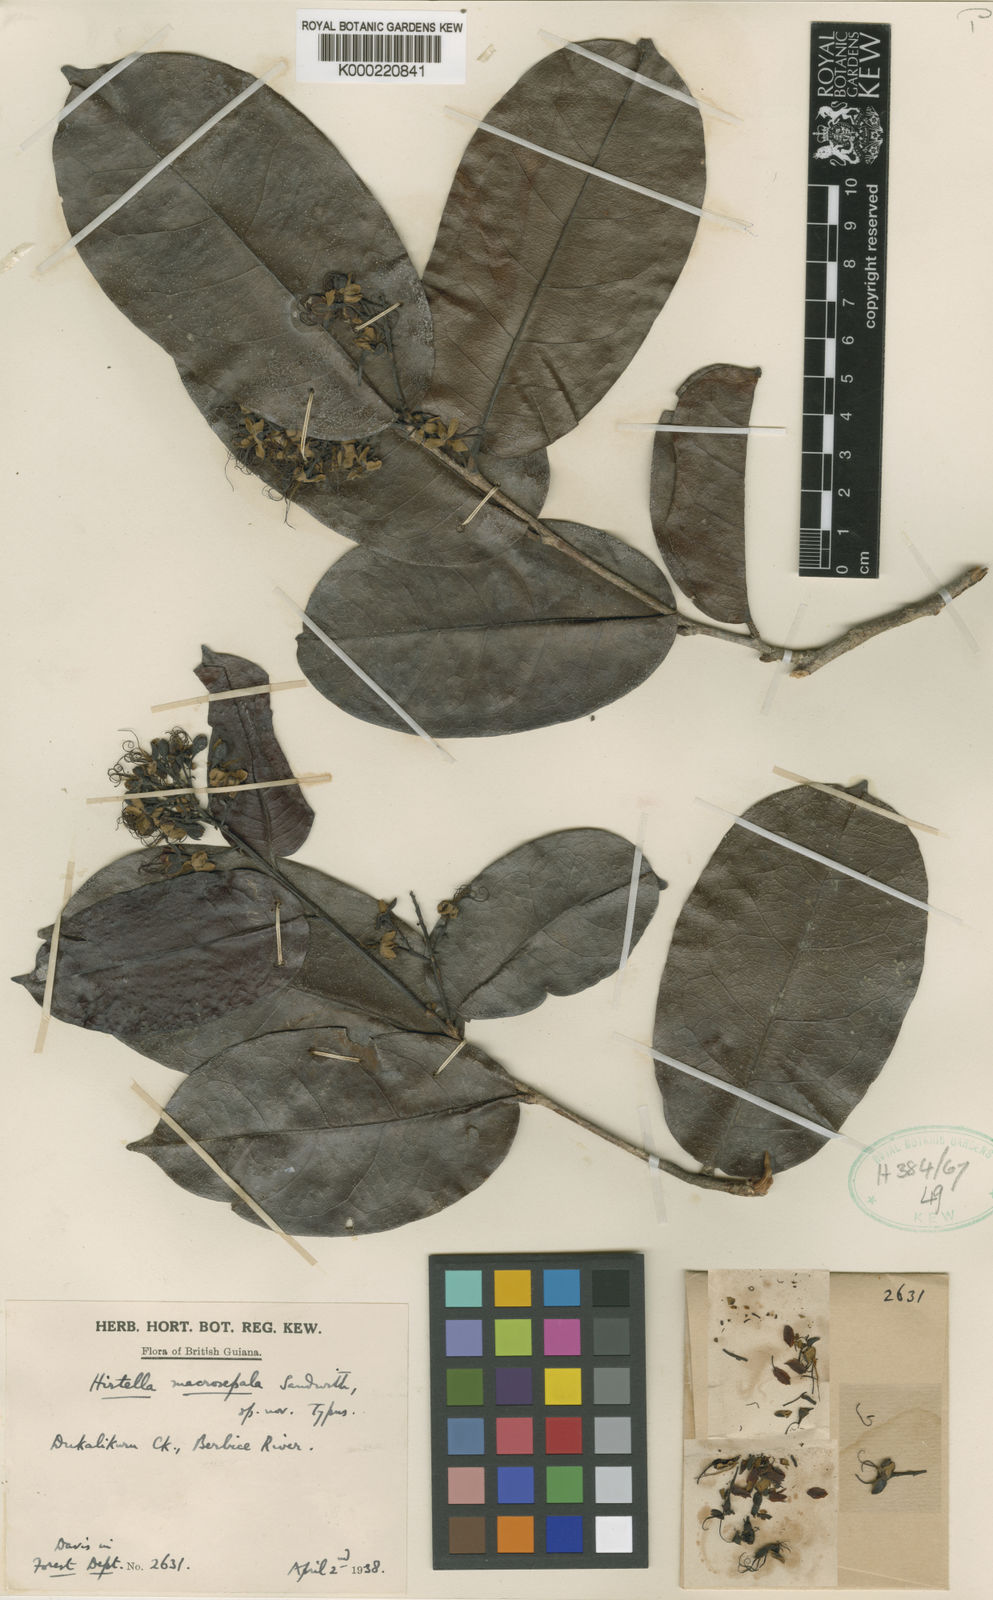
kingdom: Plantae
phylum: Tracheophyta
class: Magnoliopsida
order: Malpighiales
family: Chrysobalanaceae
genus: Hirtella
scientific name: Hirtella macrosepala
